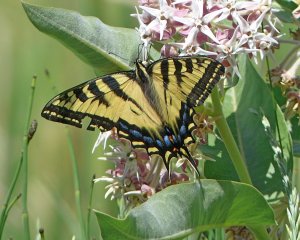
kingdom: Animalia
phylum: Arthropoda
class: Insecta
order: Lepidoptera
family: Papilionidae
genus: Pterourus
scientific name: Pterourus rutulus
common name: Western Tiger Swallowtail
